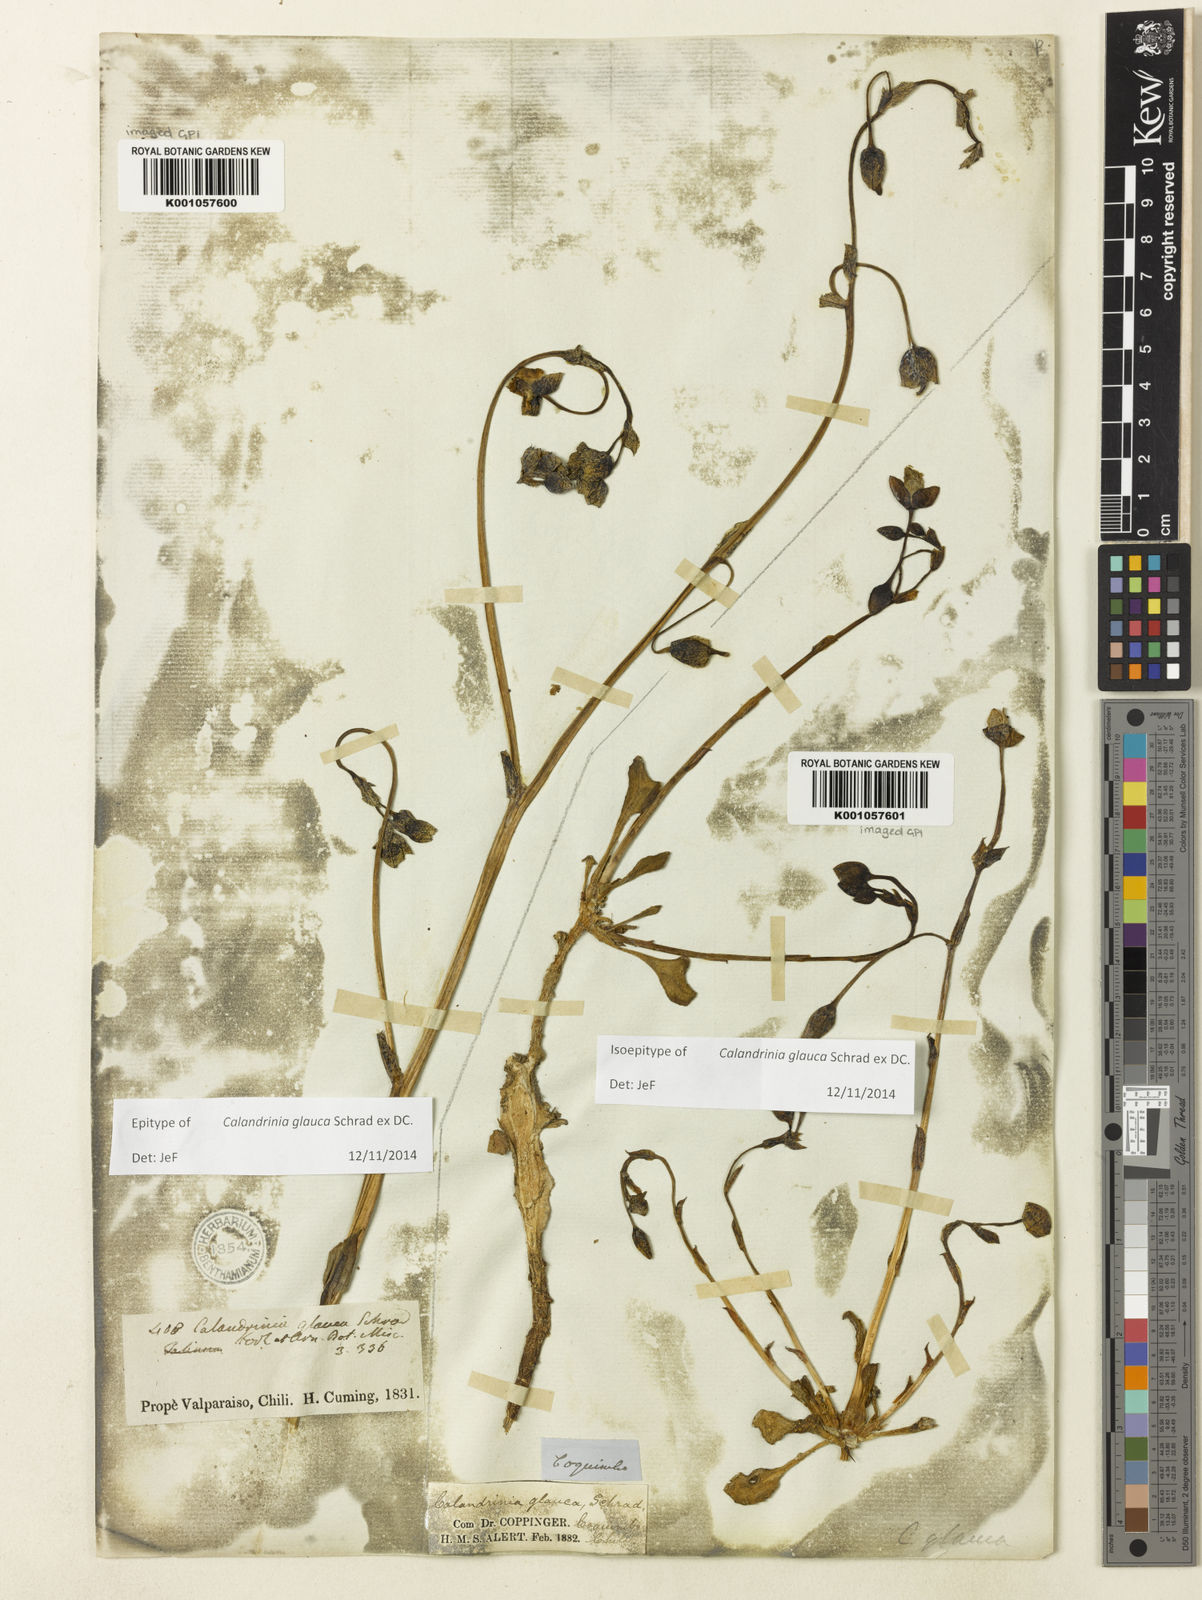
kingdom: Plantae
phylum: Tracheophyta
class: Magnoliopsida
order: Caryophyllales
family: Montiaceae
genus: Cistanthe
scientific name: Cistanthe grandiflora
